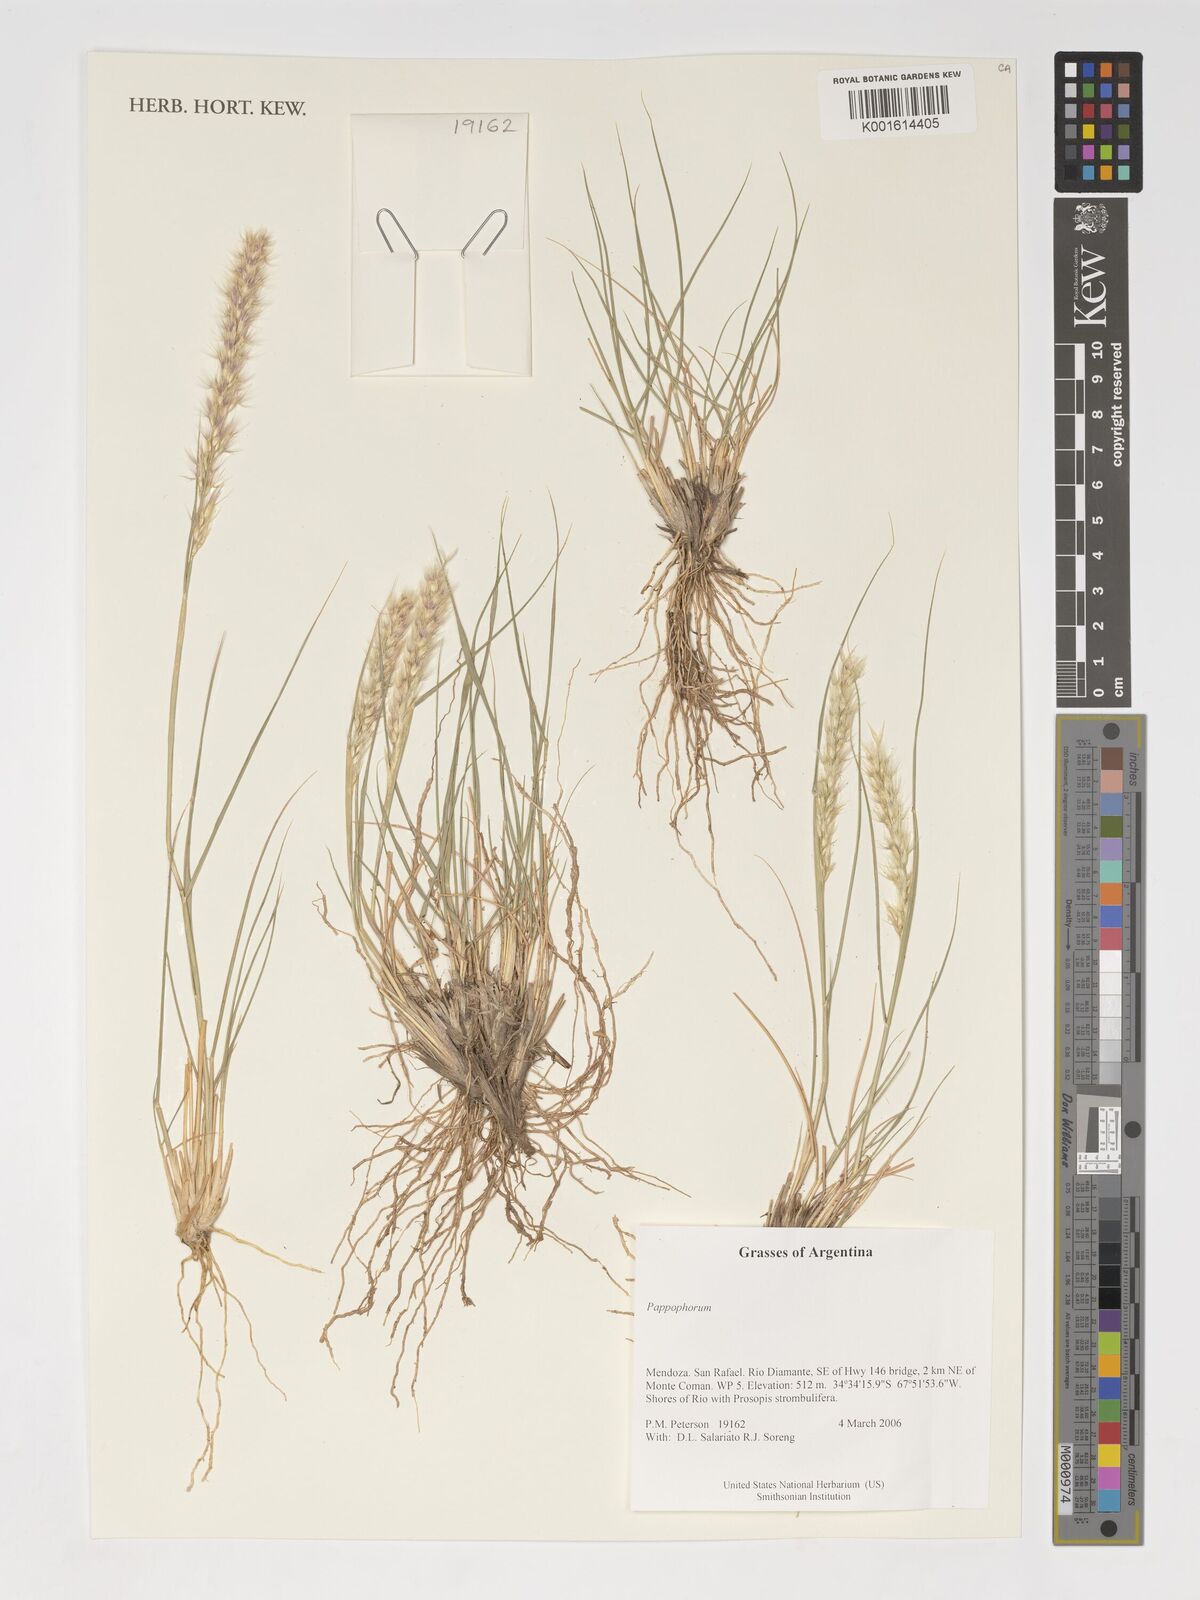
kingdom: Plantae
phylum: Tracheophyta
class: Liliopsida
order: Poales
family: Poaceae
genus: Pappophorum
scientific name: Pappophorum
